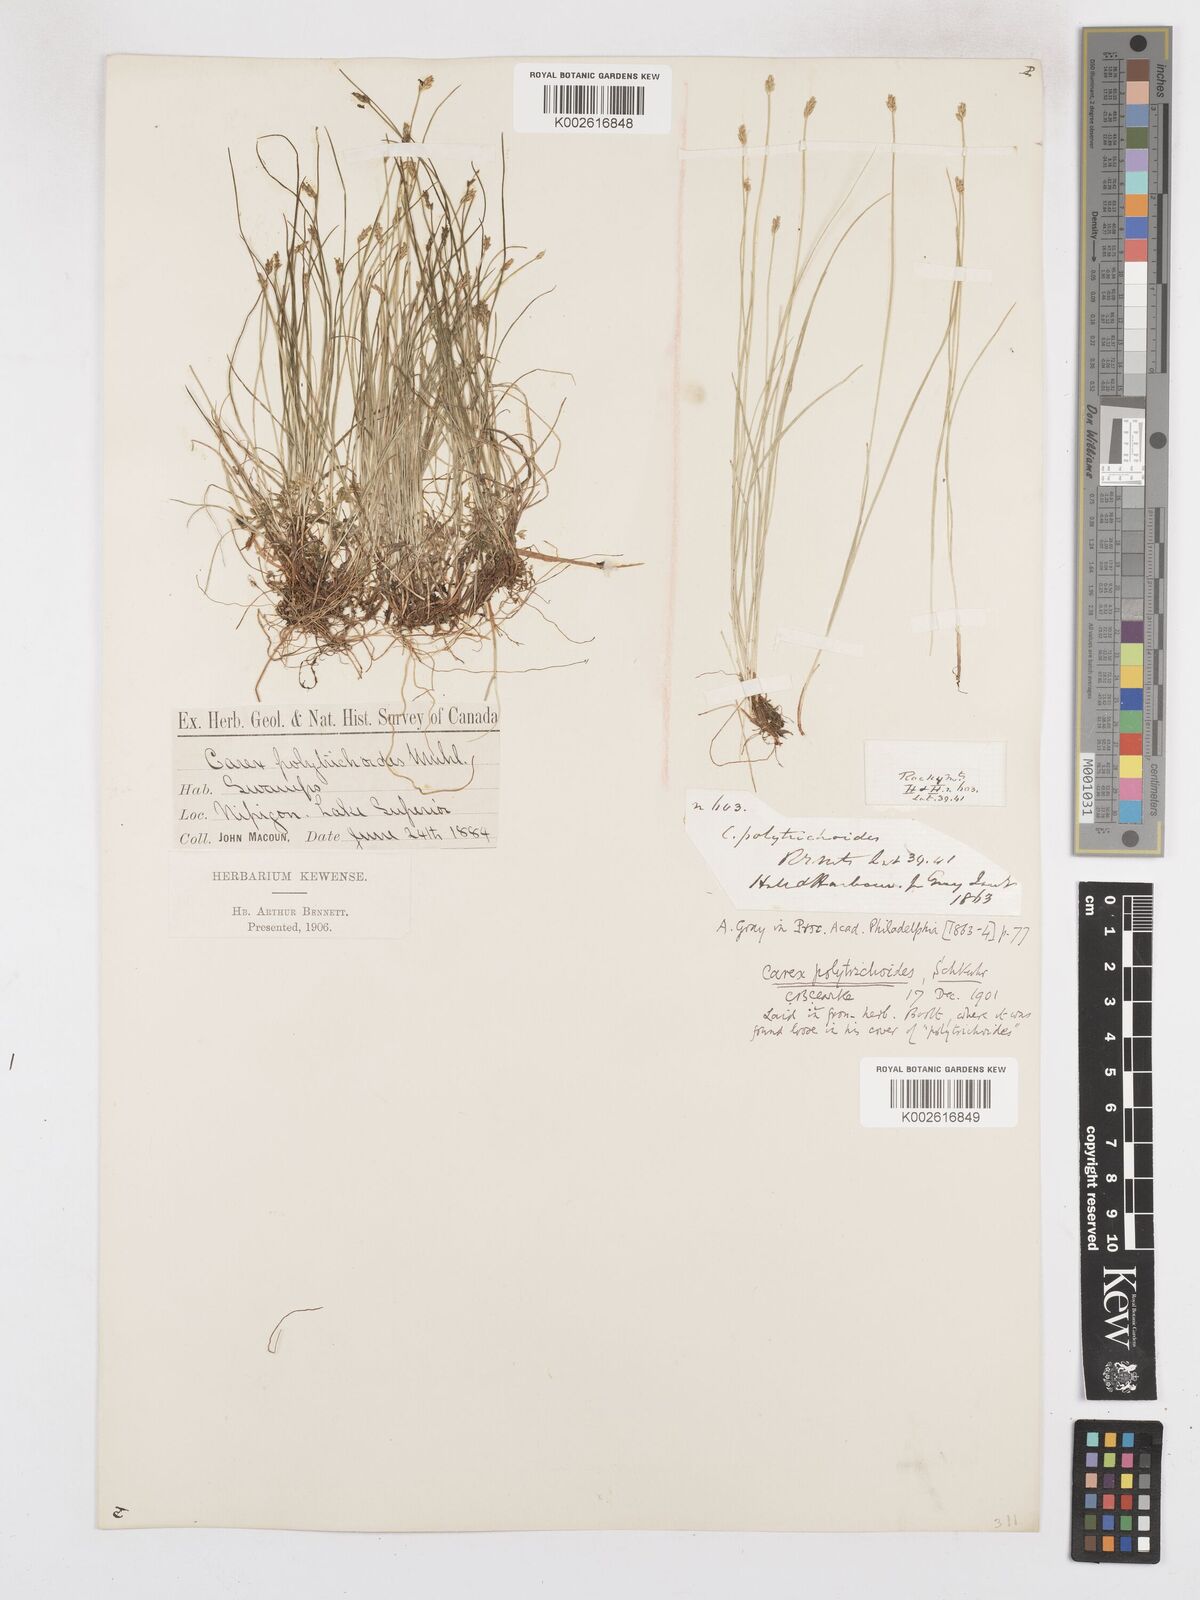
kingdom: Plantae
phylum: Tracheophyta
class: Liliopsida
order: Poales
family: Cyperaceae
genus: Carex
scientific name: Carex leptalea
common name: Bristly-stalked sedge
